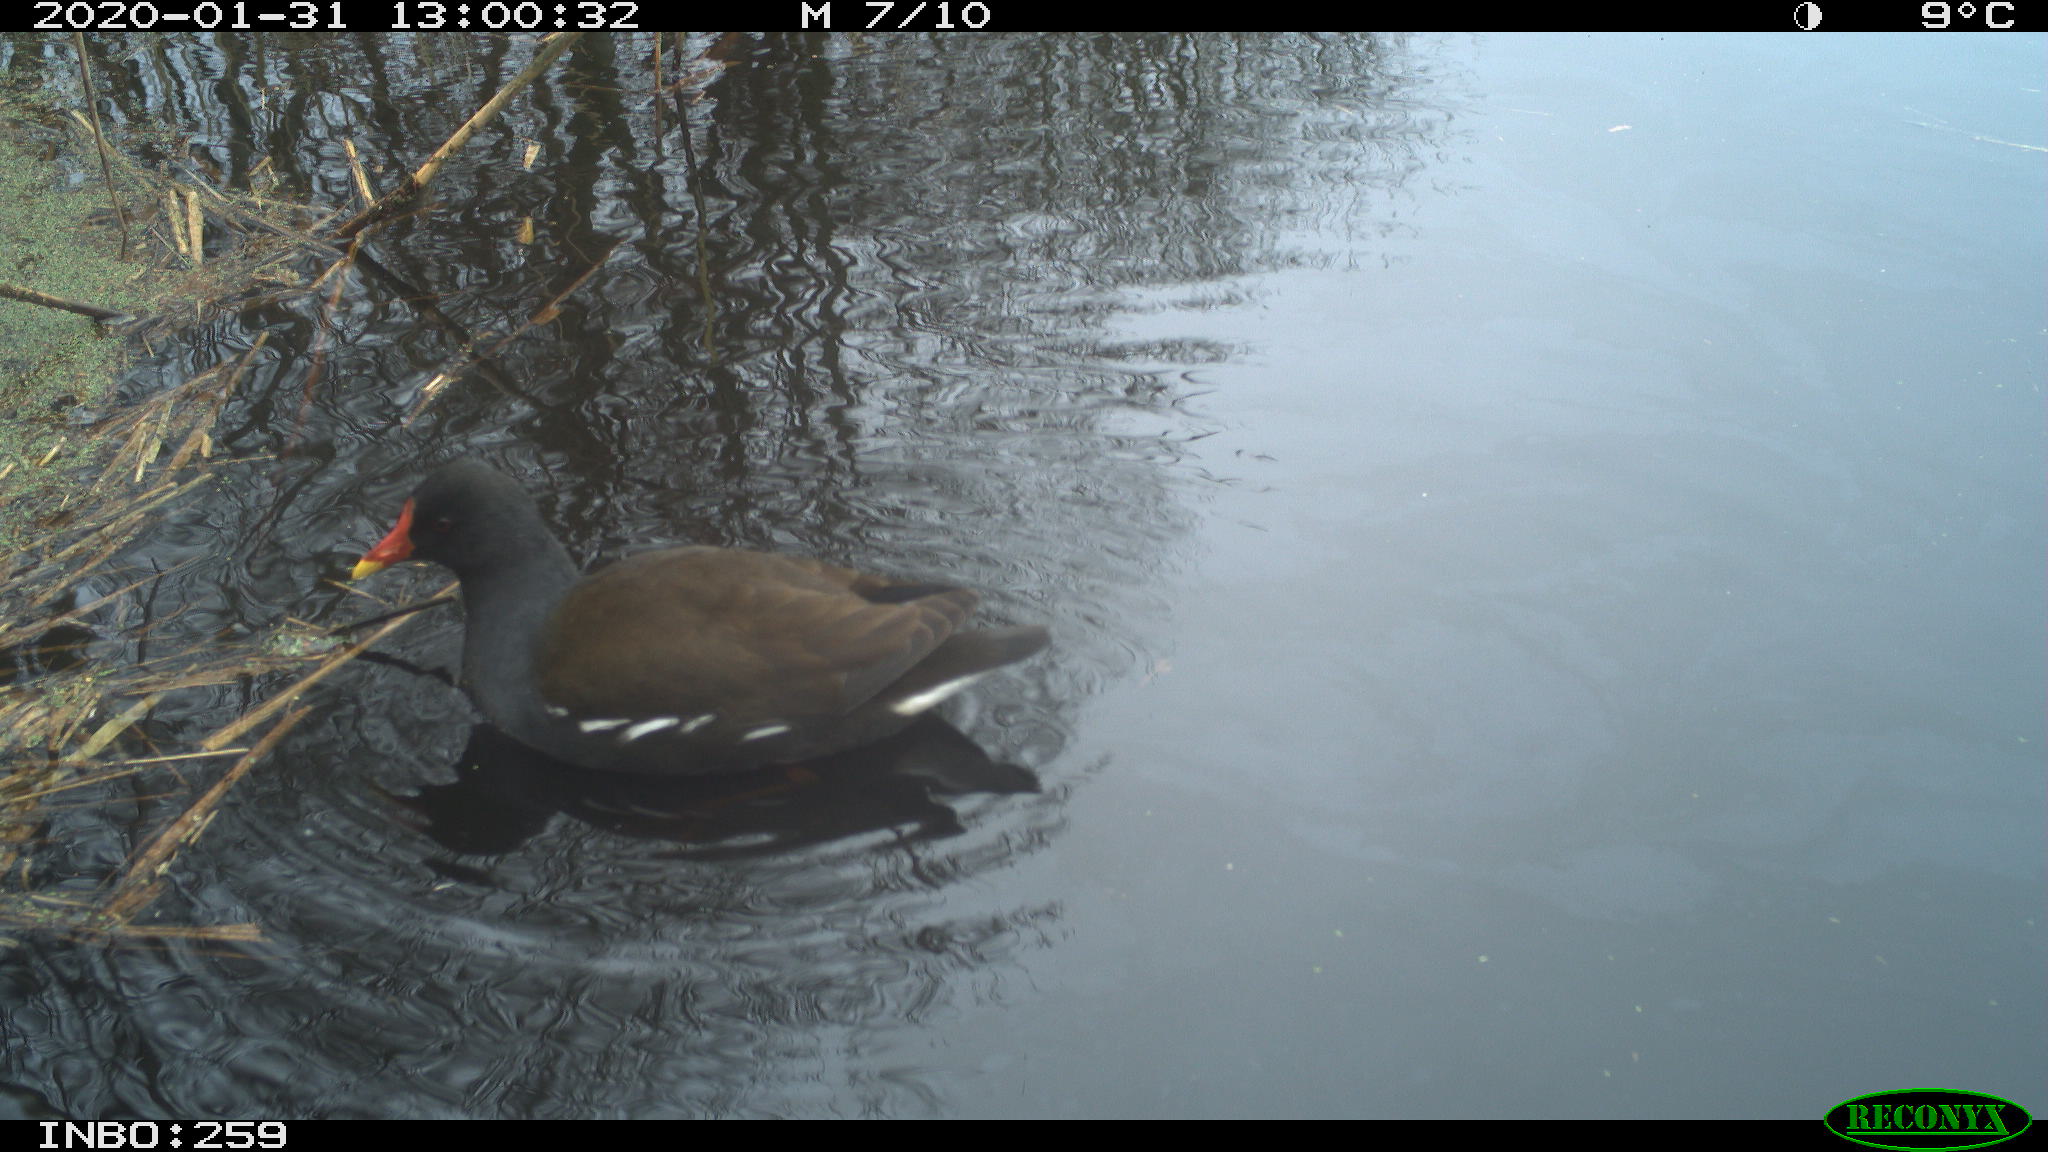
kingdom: Animalia
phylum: Chordata
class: Aves
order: Gruiformes
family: Rallidae
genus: Gallinula
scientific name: Gallinula chloropus
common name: Common moorhen
